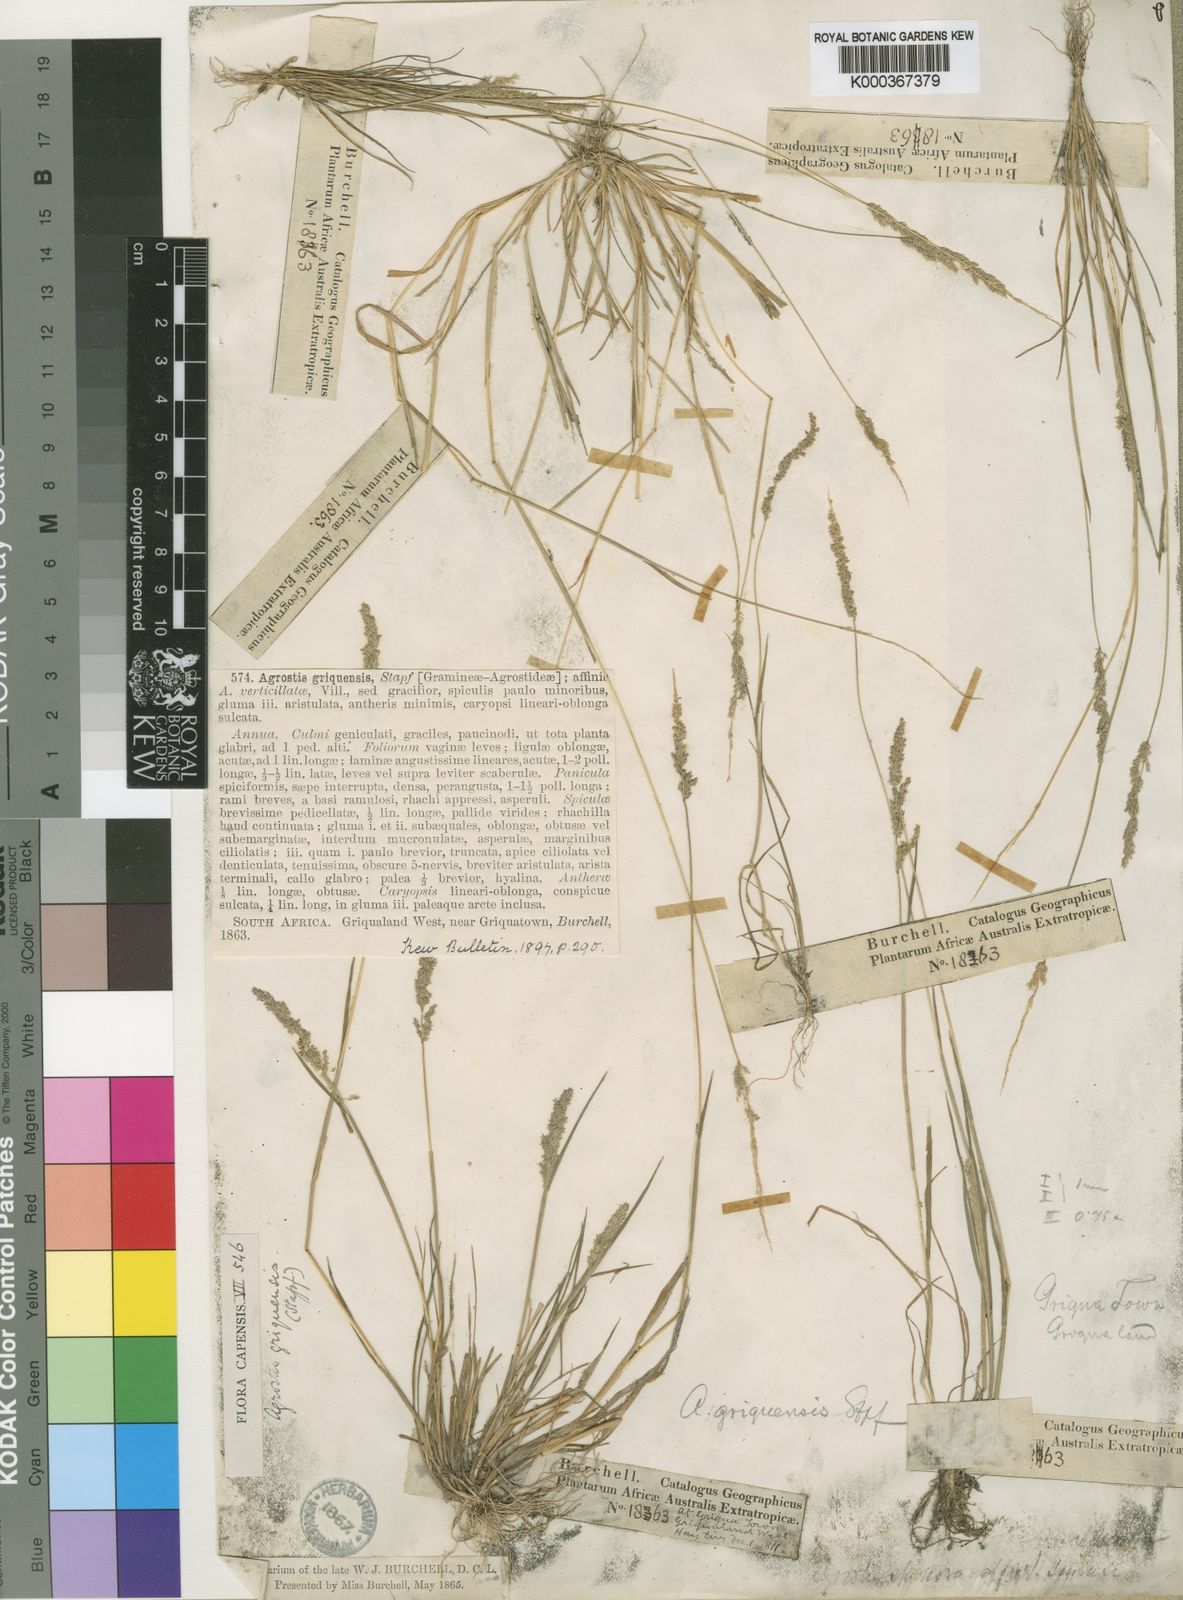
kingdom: Plantae
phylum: Tracheophyta
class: Liliopsida
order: Poales
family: Poaceae
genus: Polypogon
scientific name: Polypogon
